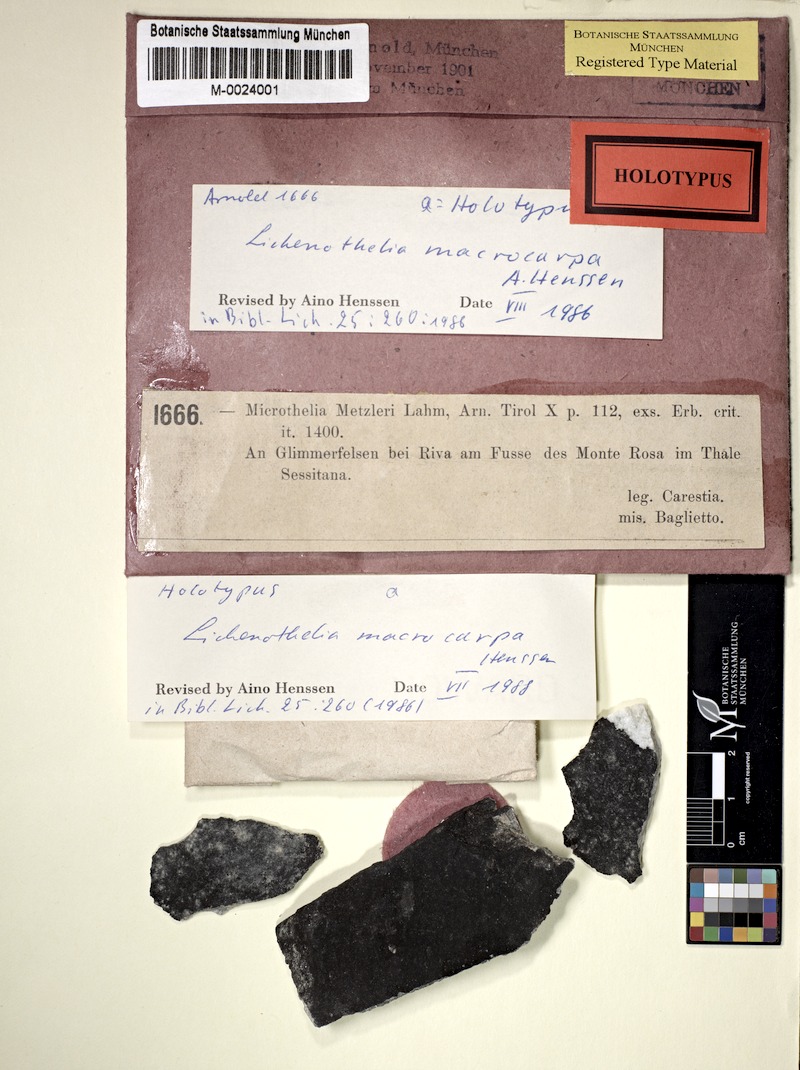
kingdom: Fungi
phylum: Ascomycota
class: Dothideomycetes
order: Lichenotheliales
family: Lichenotheliaceae
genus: Lichenothelia
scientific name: Lichenothelia
